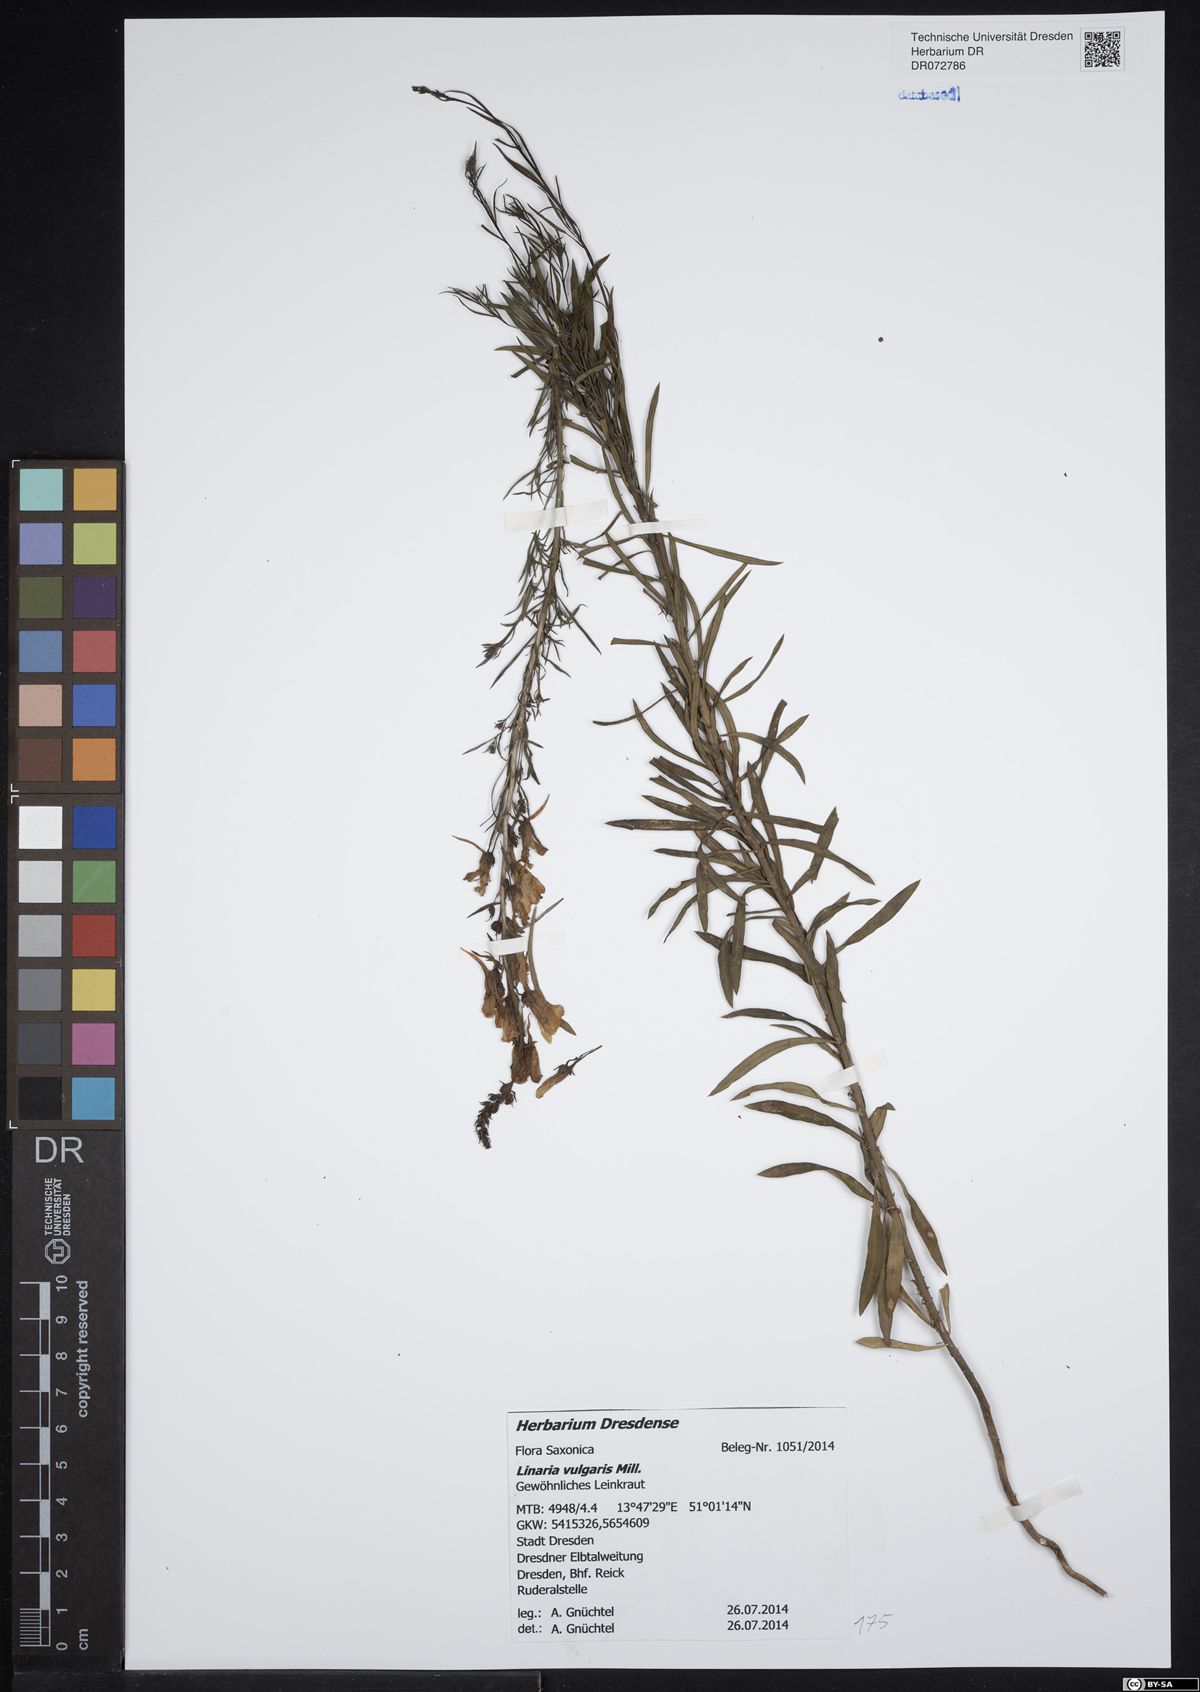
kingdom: Plantae
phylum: Tracheophyta
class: Magnoliopsida
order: Lamiales
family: Plantaginaceae
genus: Linaria
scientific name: Linaria vulgaris
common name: Butter and eggs
